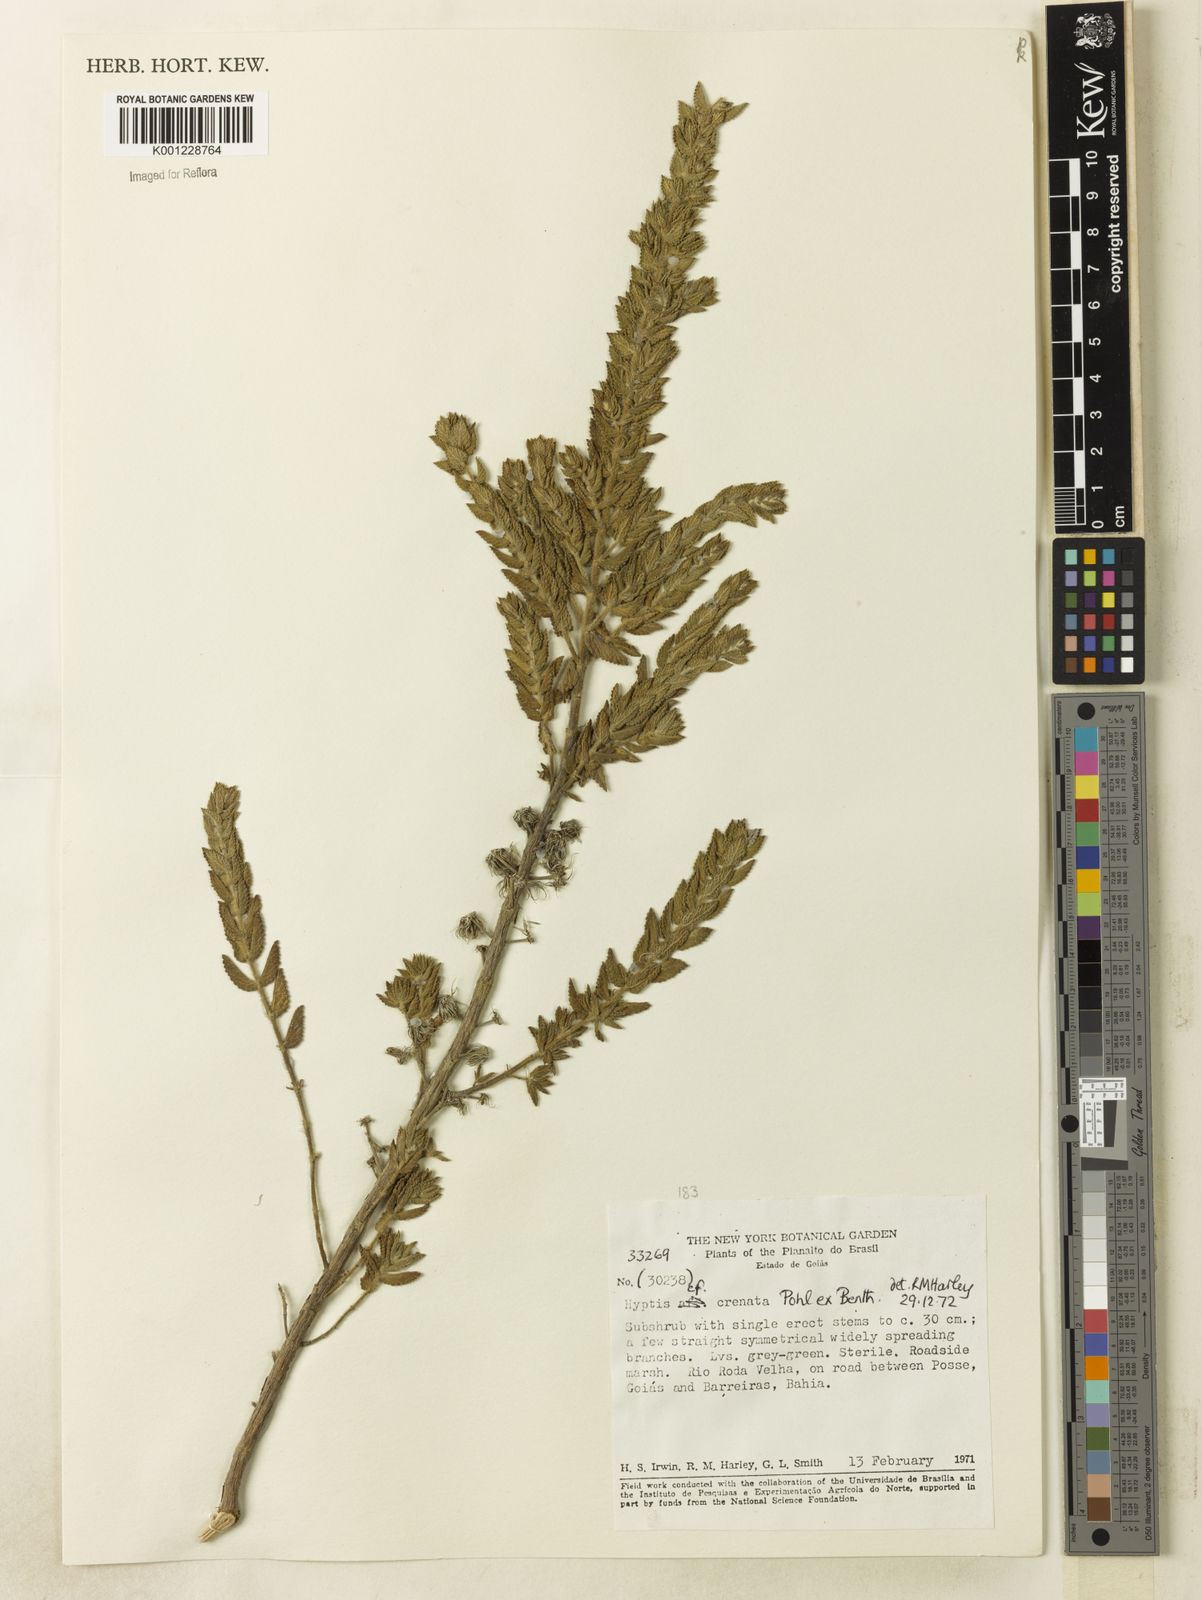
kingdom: Plantae
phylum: Tracheophyta
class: Magnoliopsida
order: Lamiales
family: Lamiaceae
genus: Hyptis
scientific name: Hyptis crenata
